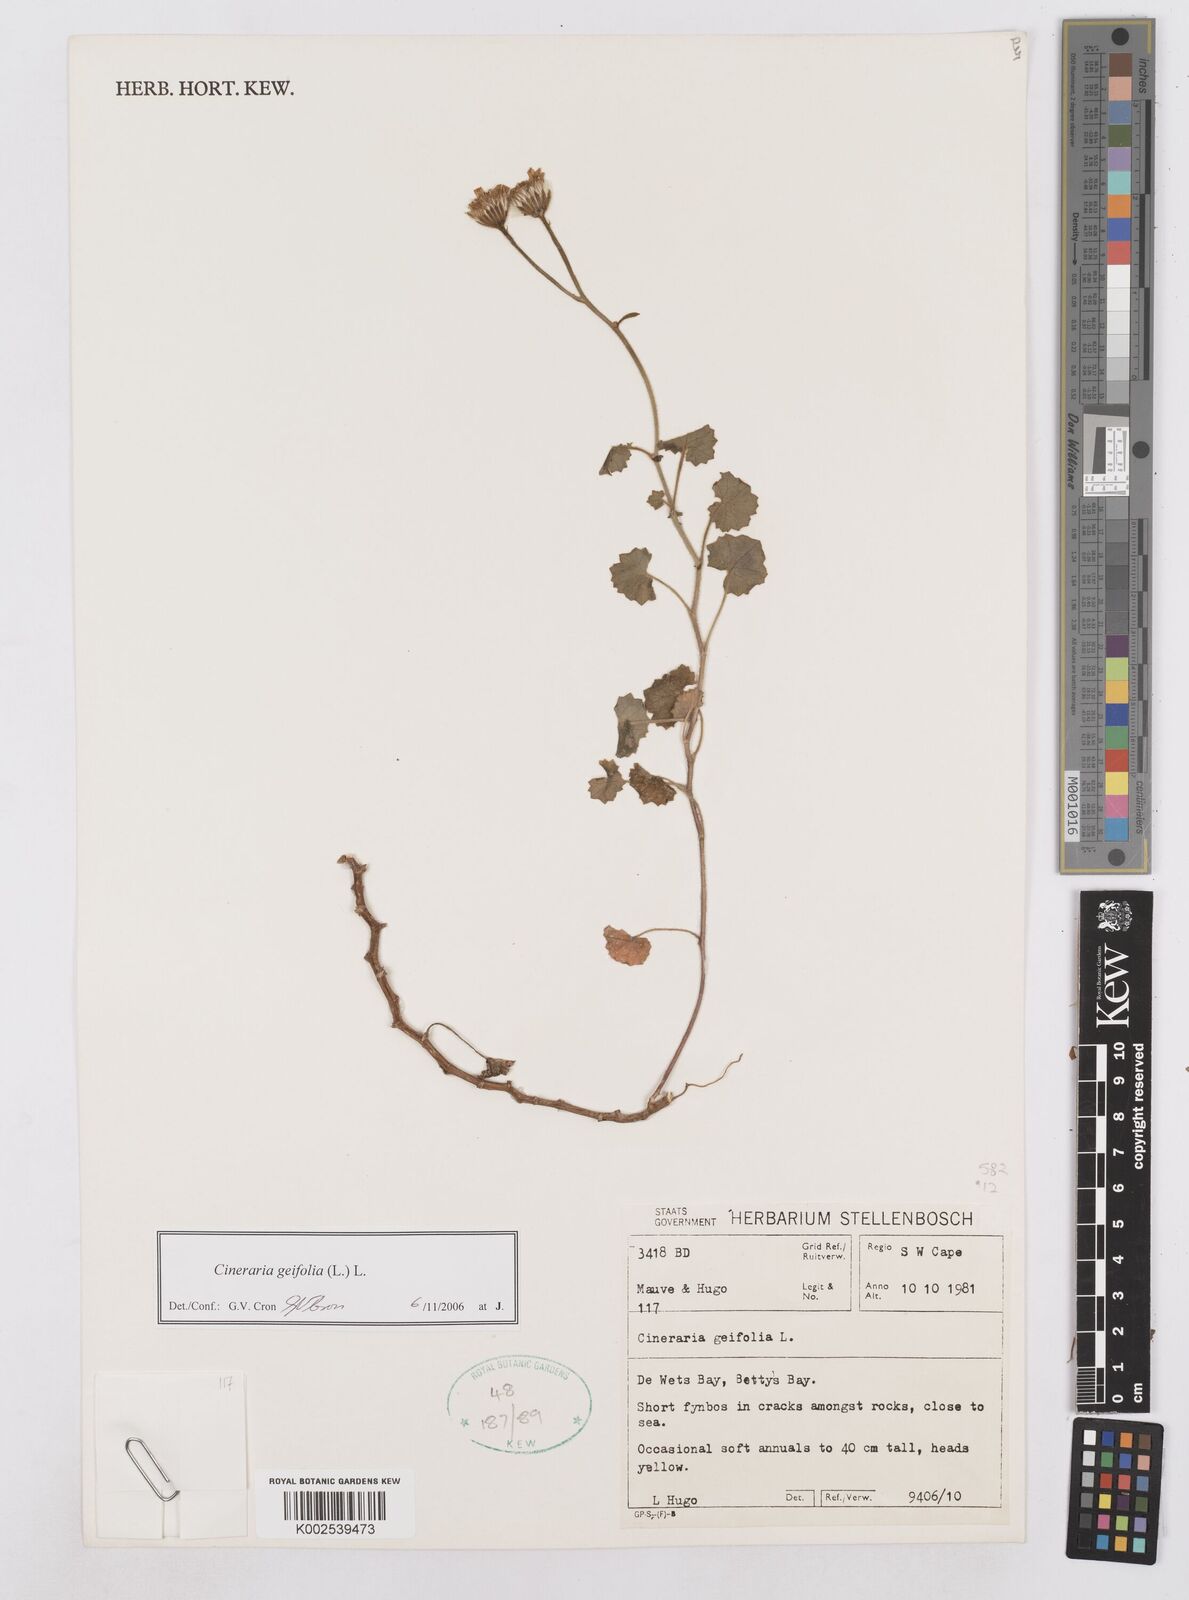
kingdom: Plantae
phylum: Tracheophyta
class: Magnoliopsida
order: Asterales
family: Asteraceae
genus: Cineraria
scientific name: Cineraria geifolia
